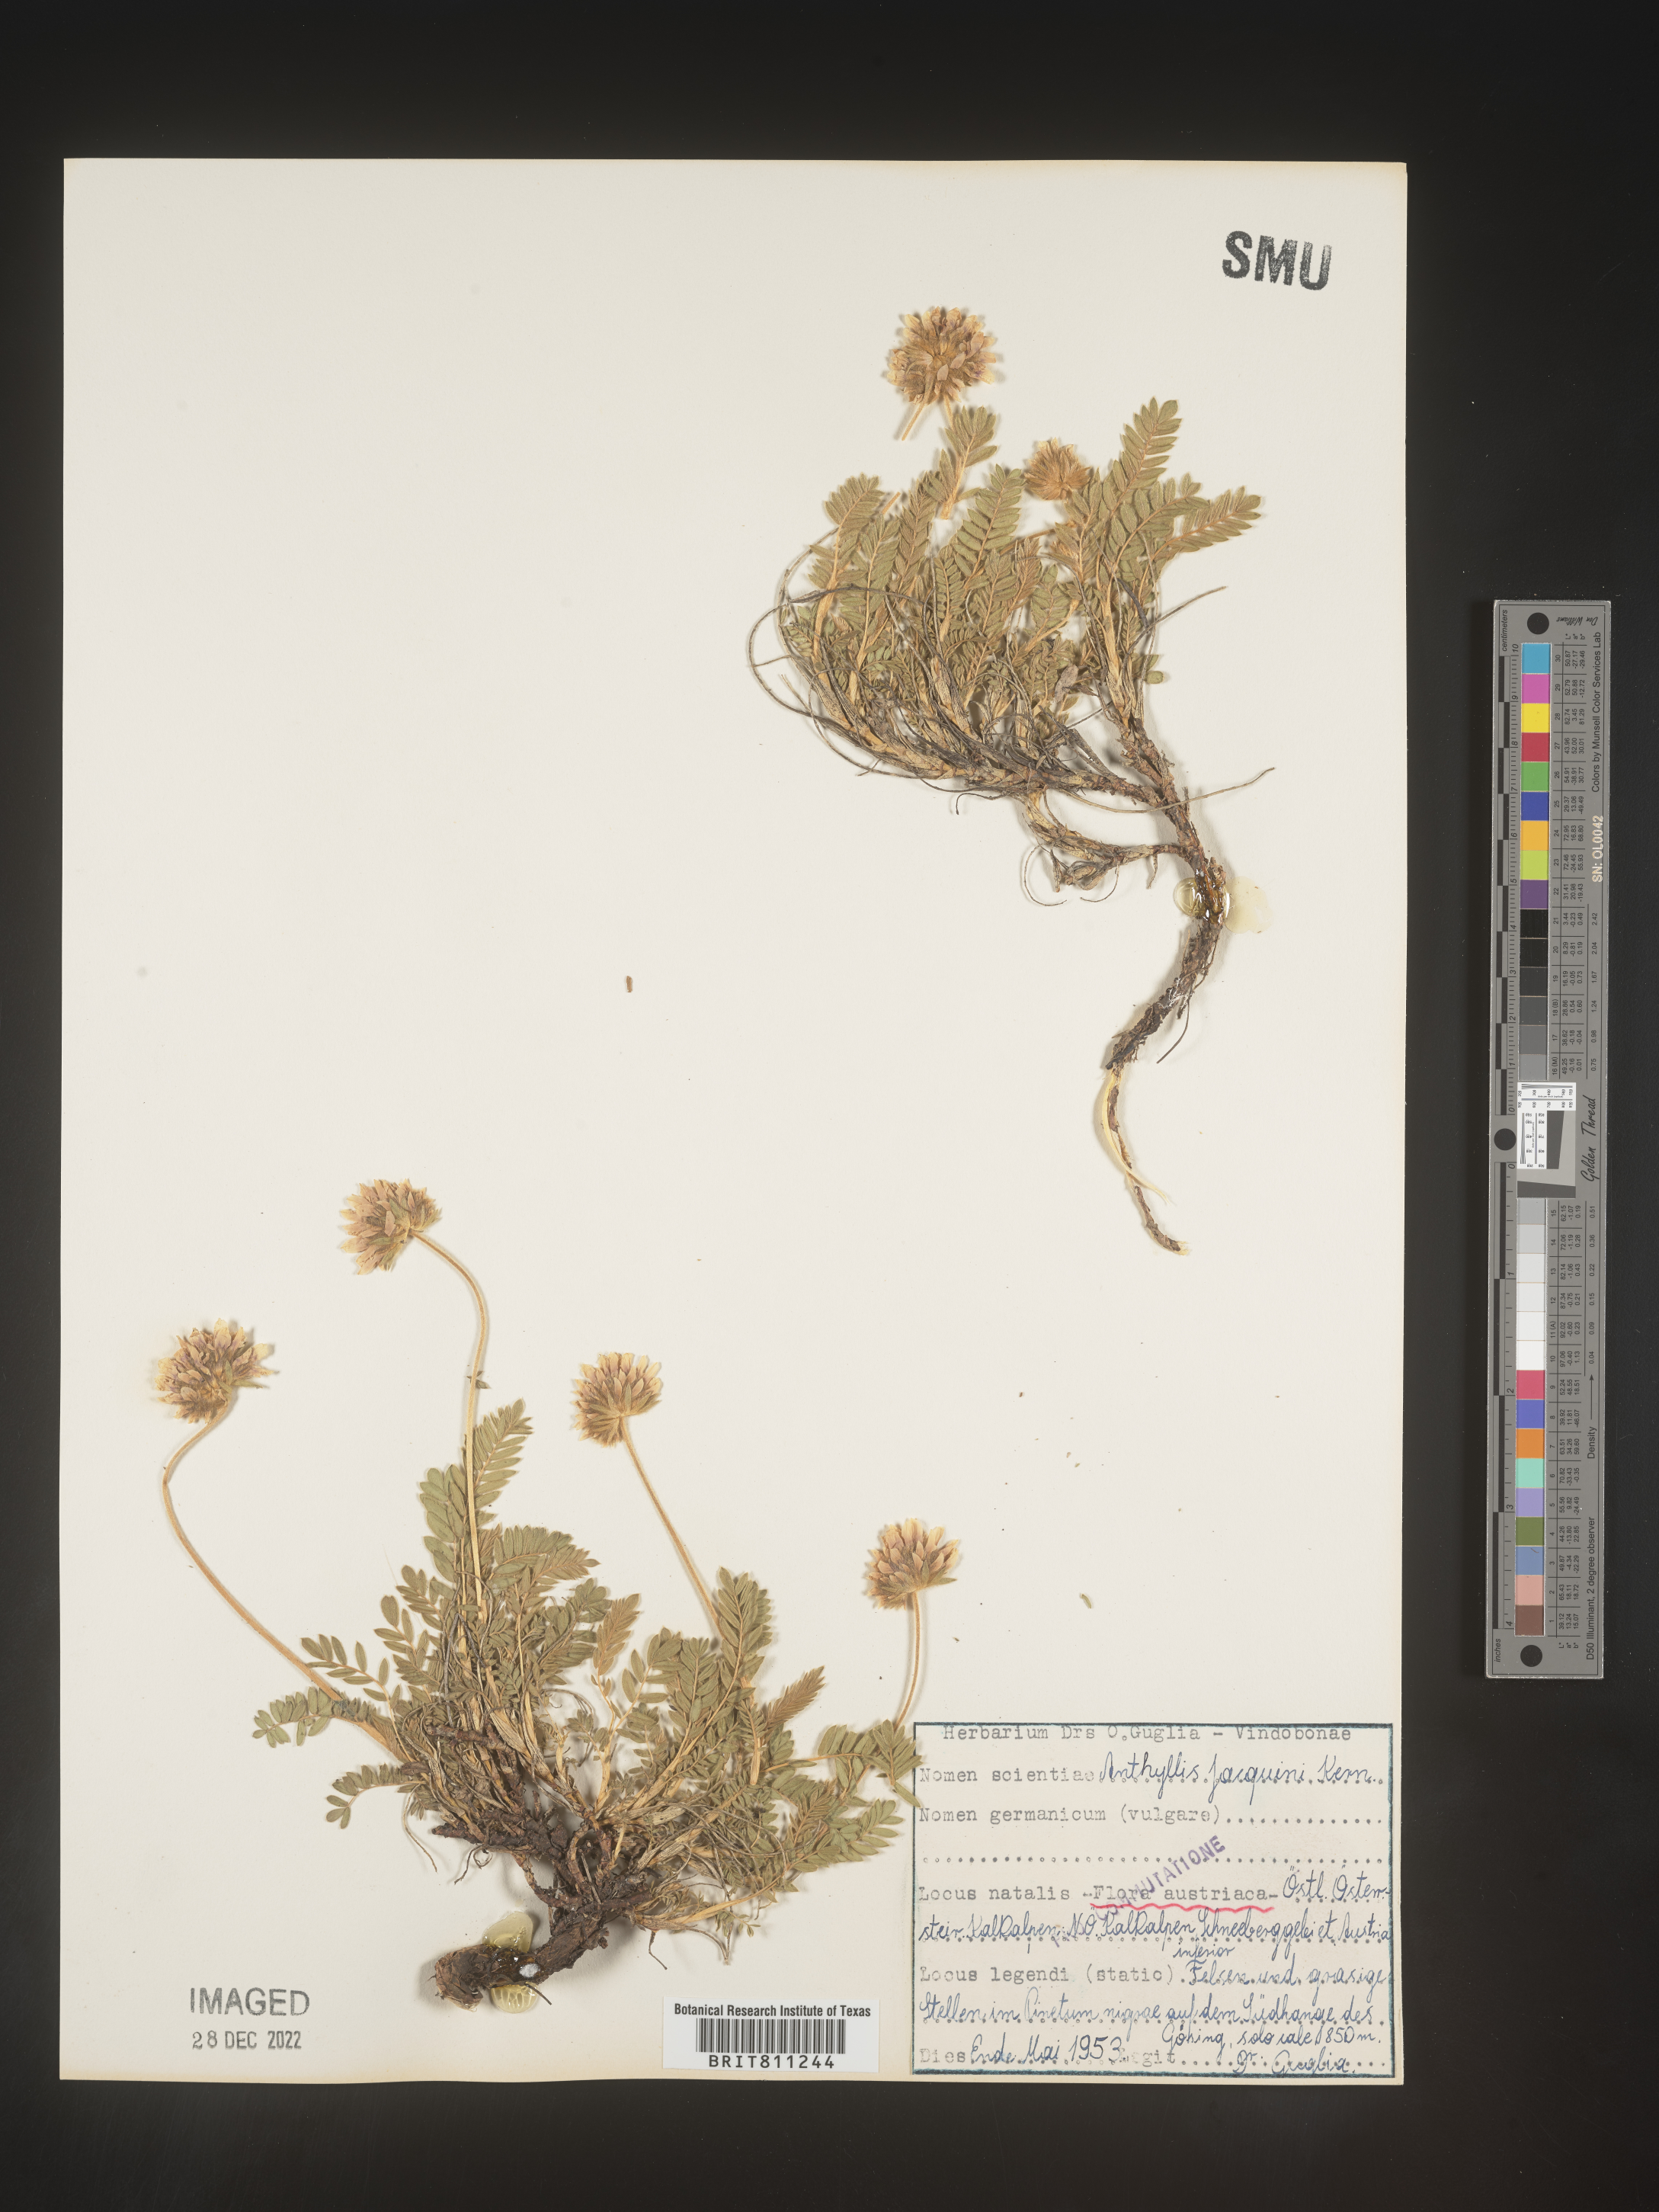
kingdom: Plantae
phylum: Tracheophyta
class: Magnoliopsida
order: Fabales
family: Fabaceae
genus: Anthyllis
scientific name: Anthyllis
